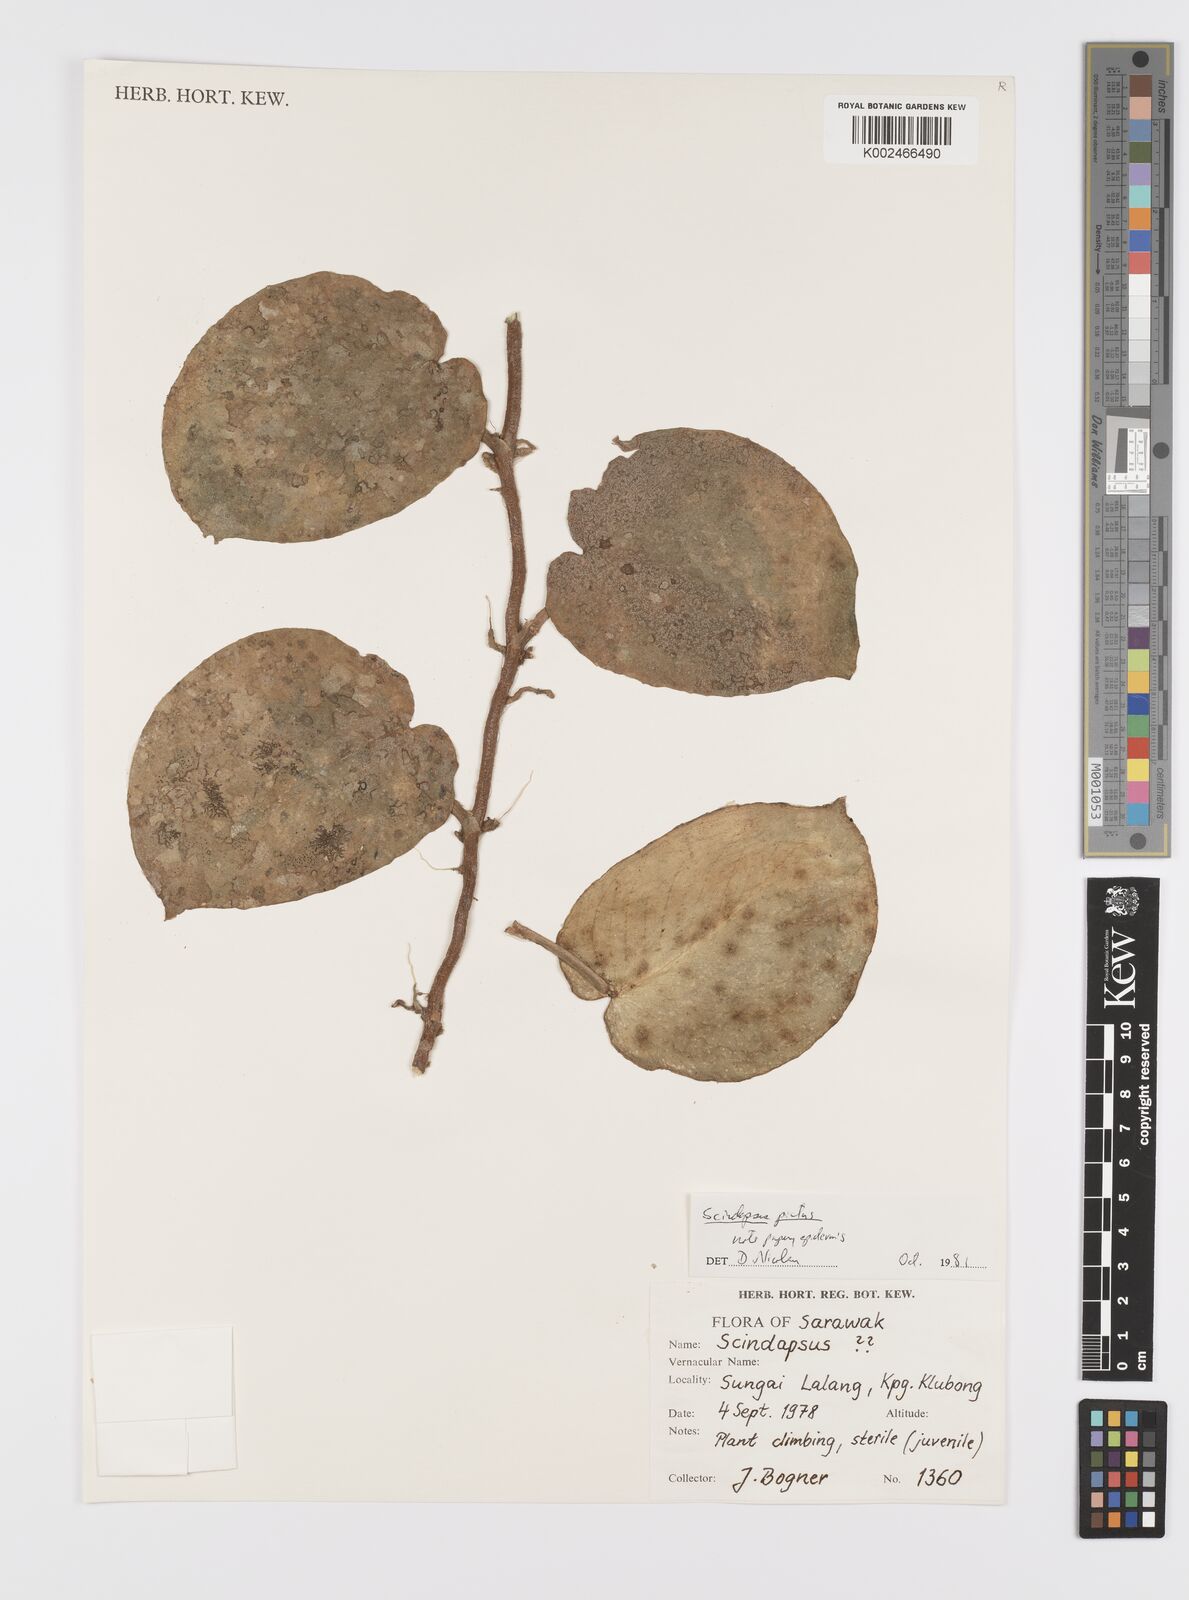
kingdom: Plantae
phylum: Tracheophyta
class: Liliopsida
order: Alismatales
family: Araceae
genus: Scindapsus
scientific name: Scindapsus pictus
